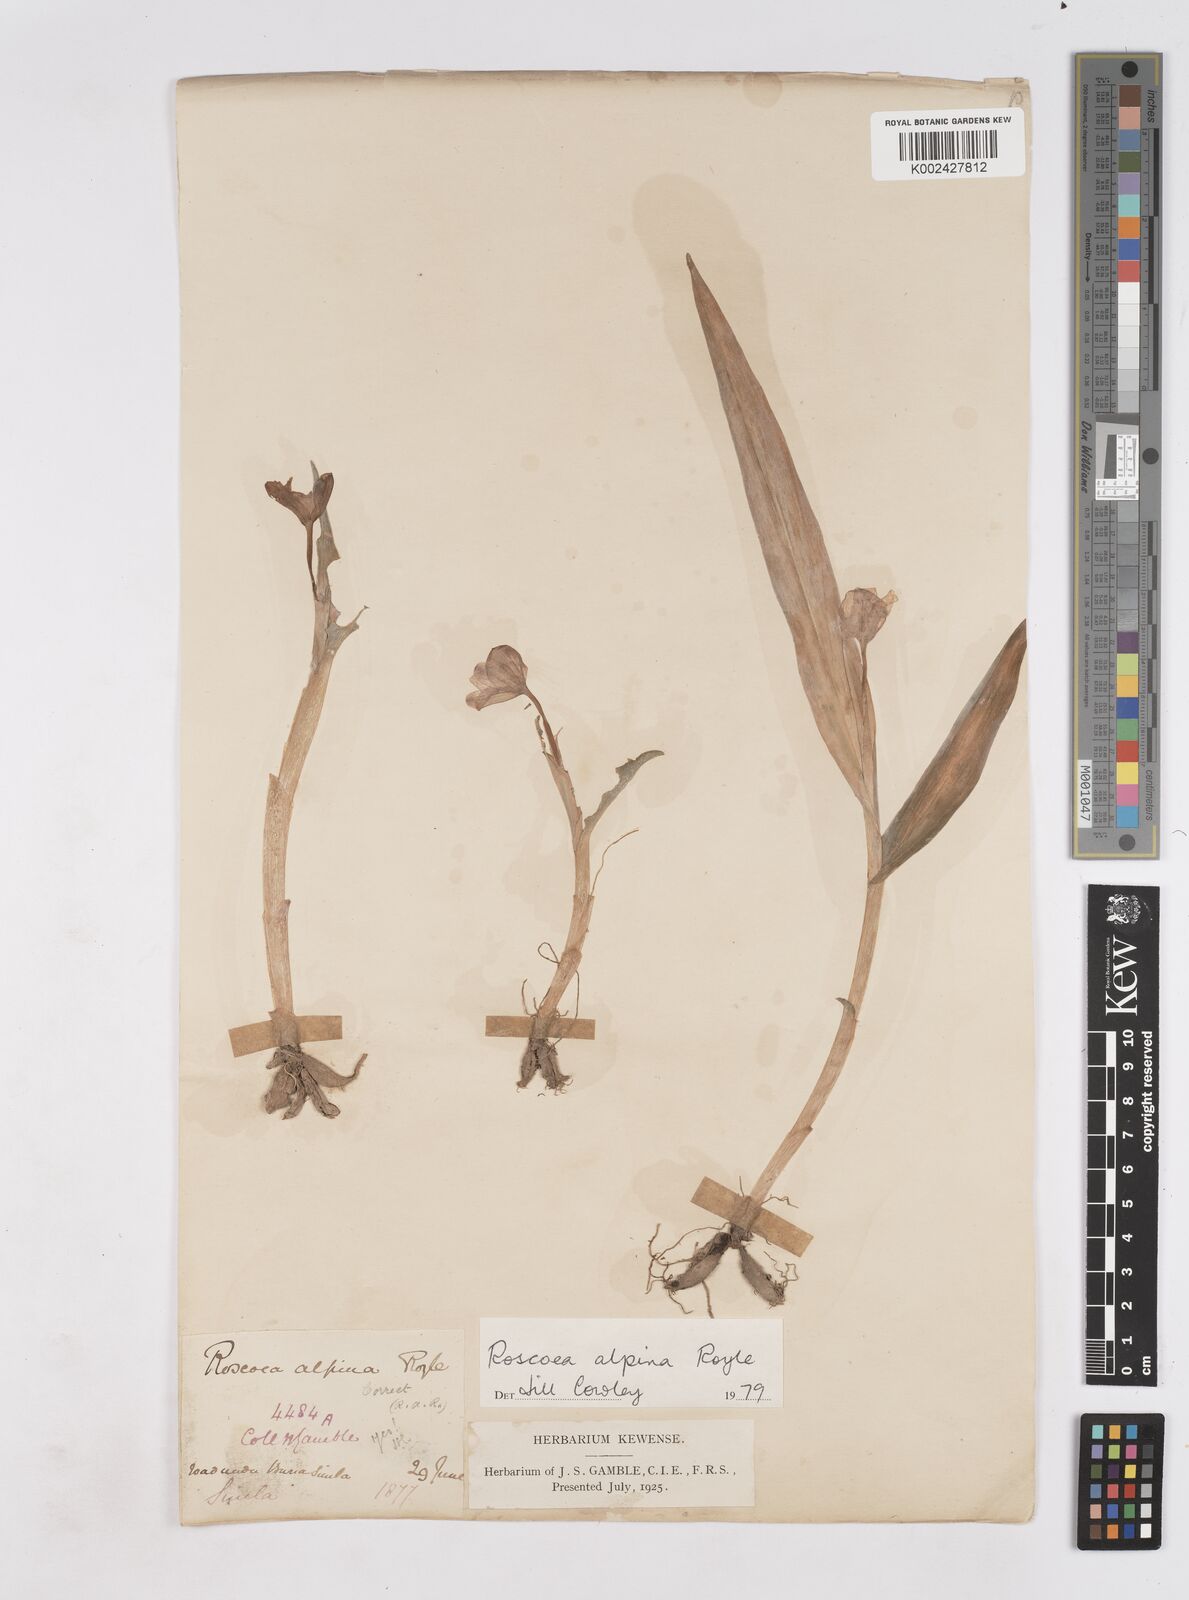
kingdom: Plantae
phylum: Tracheophyta
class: Liliopsida
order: Zingiberales
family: Zingiberaceae
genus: Roscoea
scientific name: Roscoea alpina
